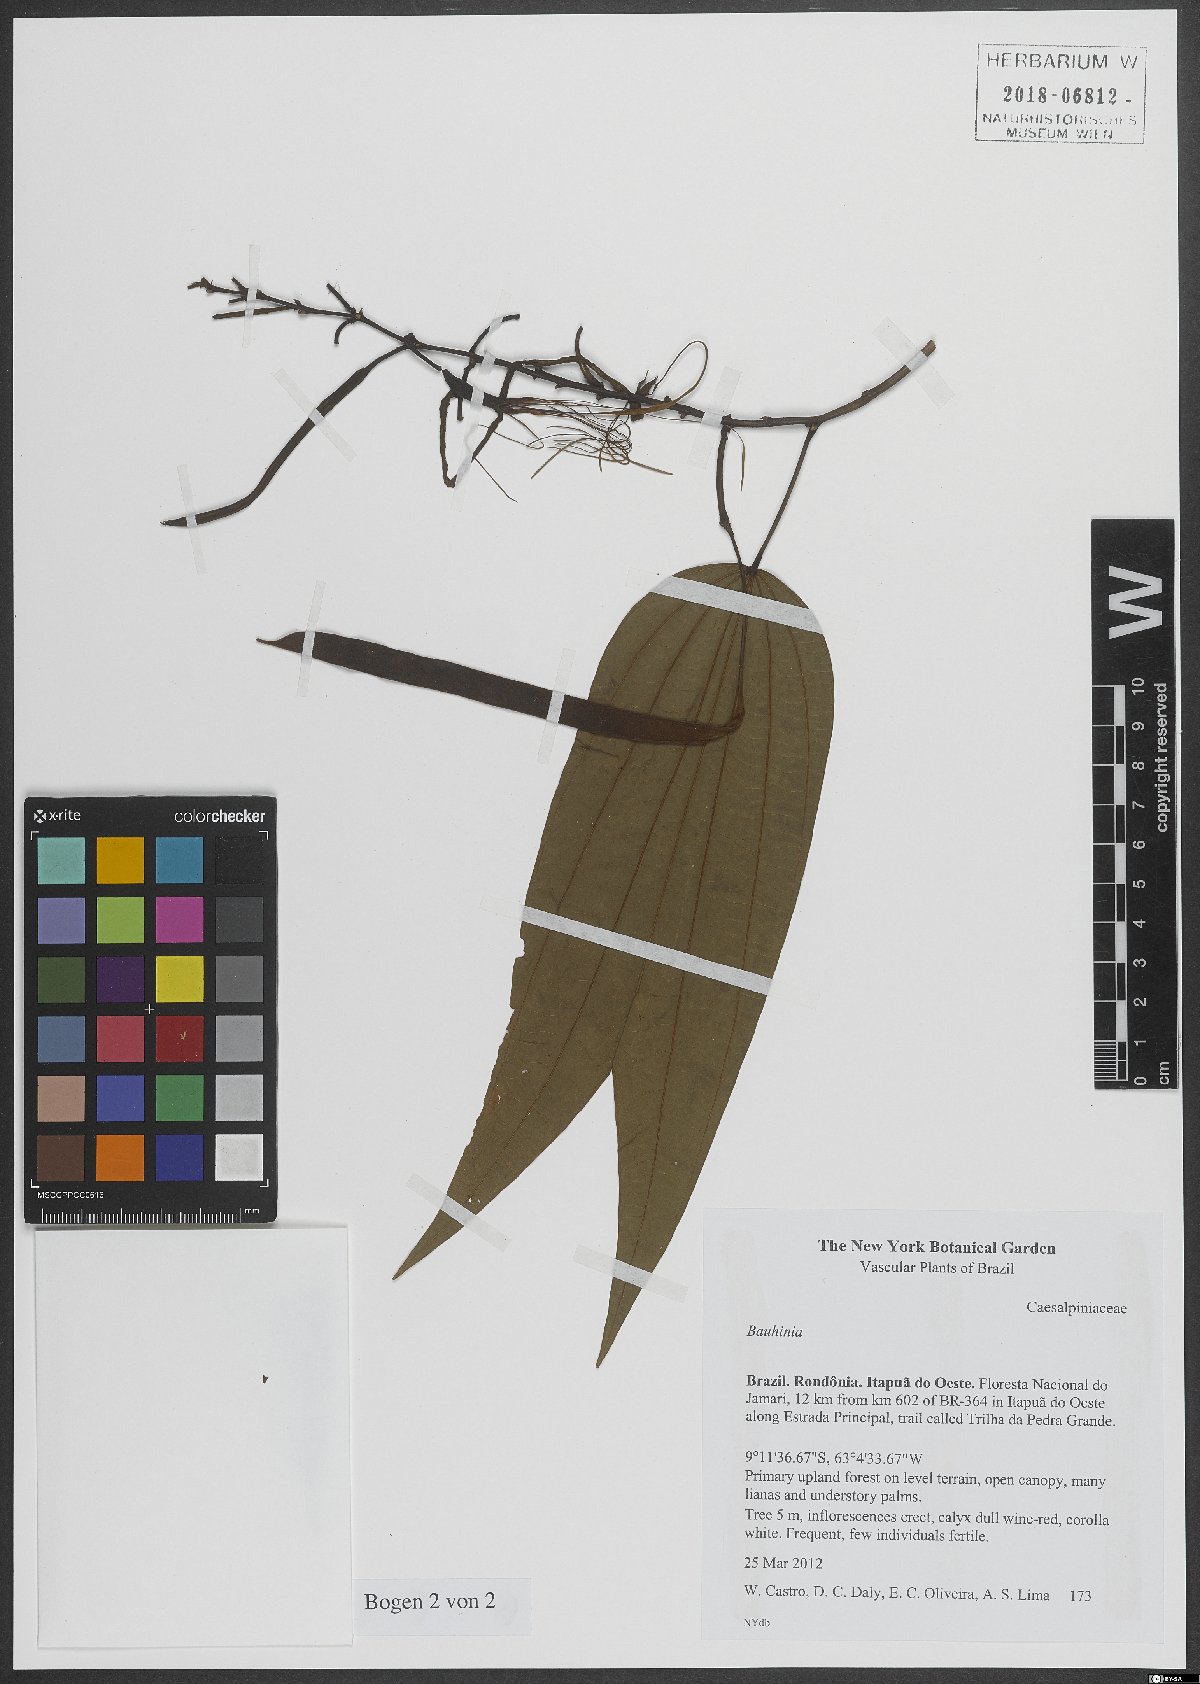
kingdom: Plantae
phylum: Tracheophyta
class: Magnoliopsida
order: Fabales
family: Fabaceae
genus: Bauhinia
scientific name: Bauhinia
